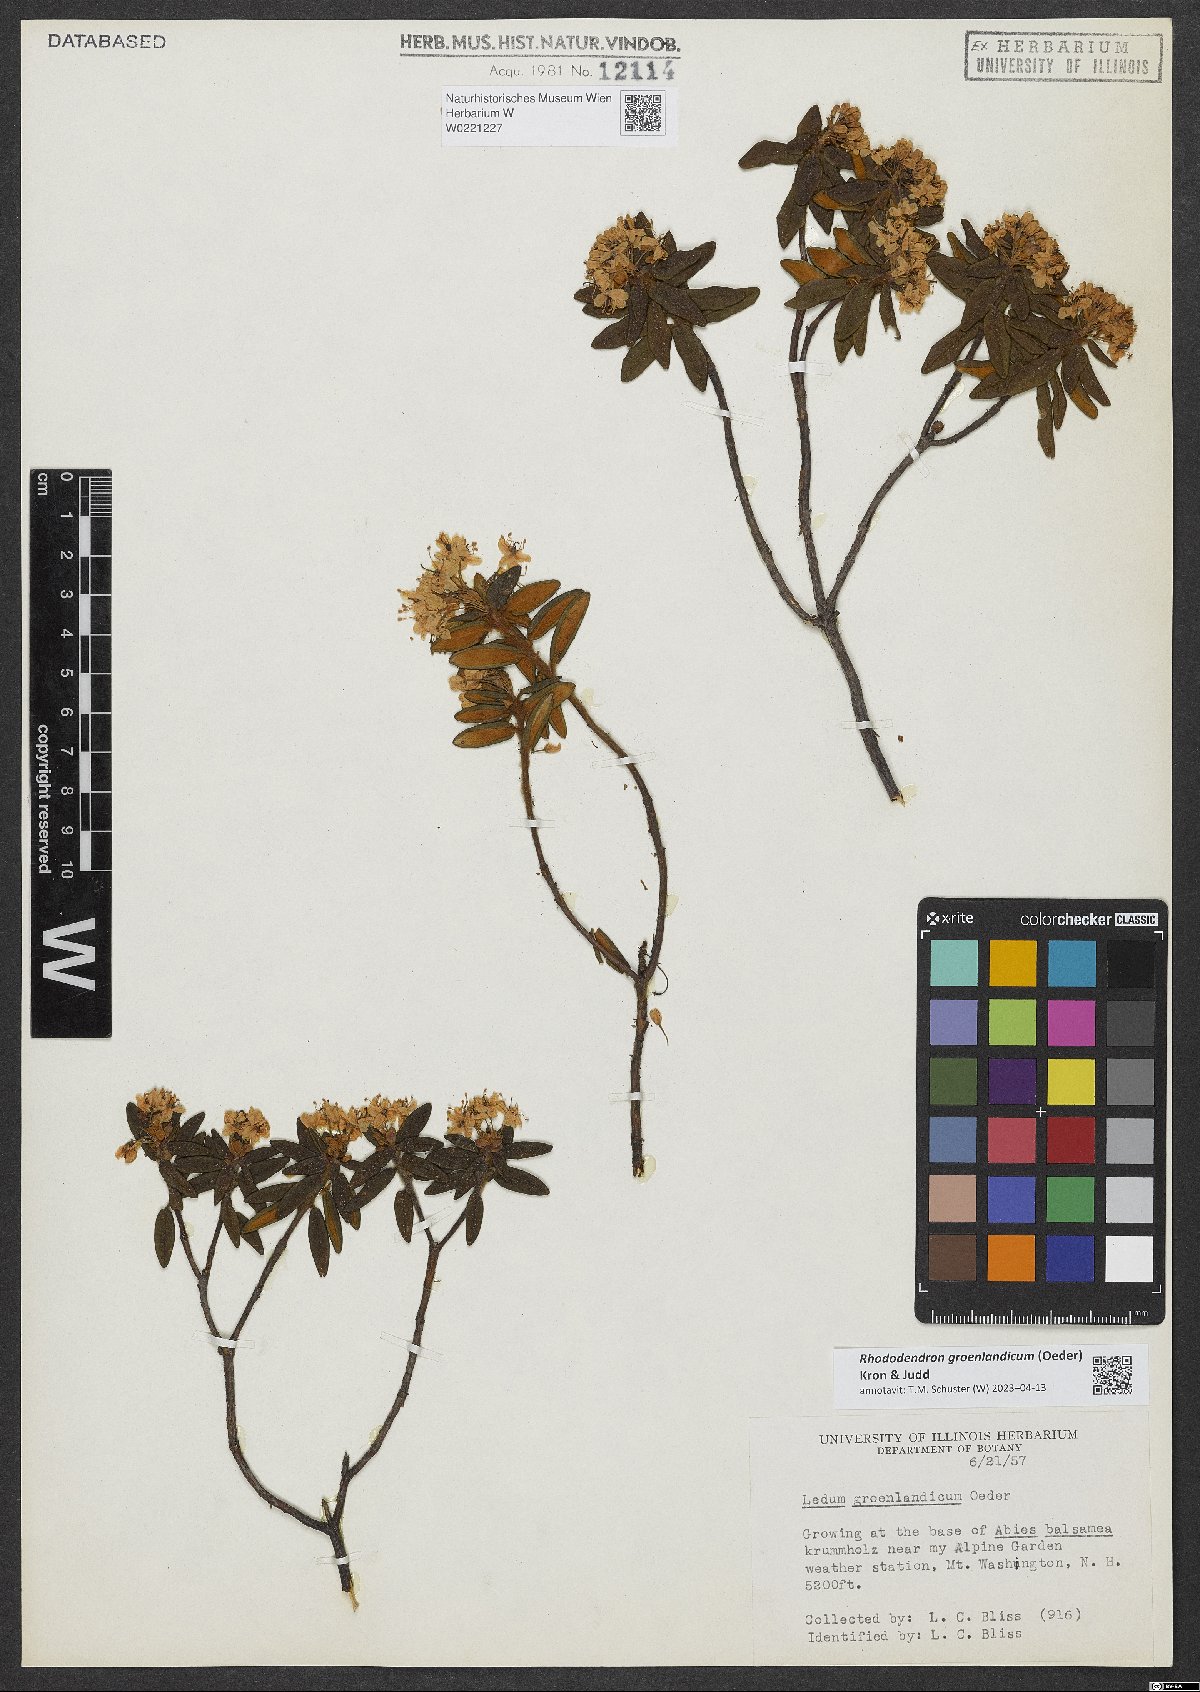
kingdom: Plantae
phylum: Tracheophyta
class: Magnoliopsida
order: Ericales
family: Ericaceae
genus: Rhododendron
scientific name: Rhododendron groenlandicum
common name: Bog labrador tea
